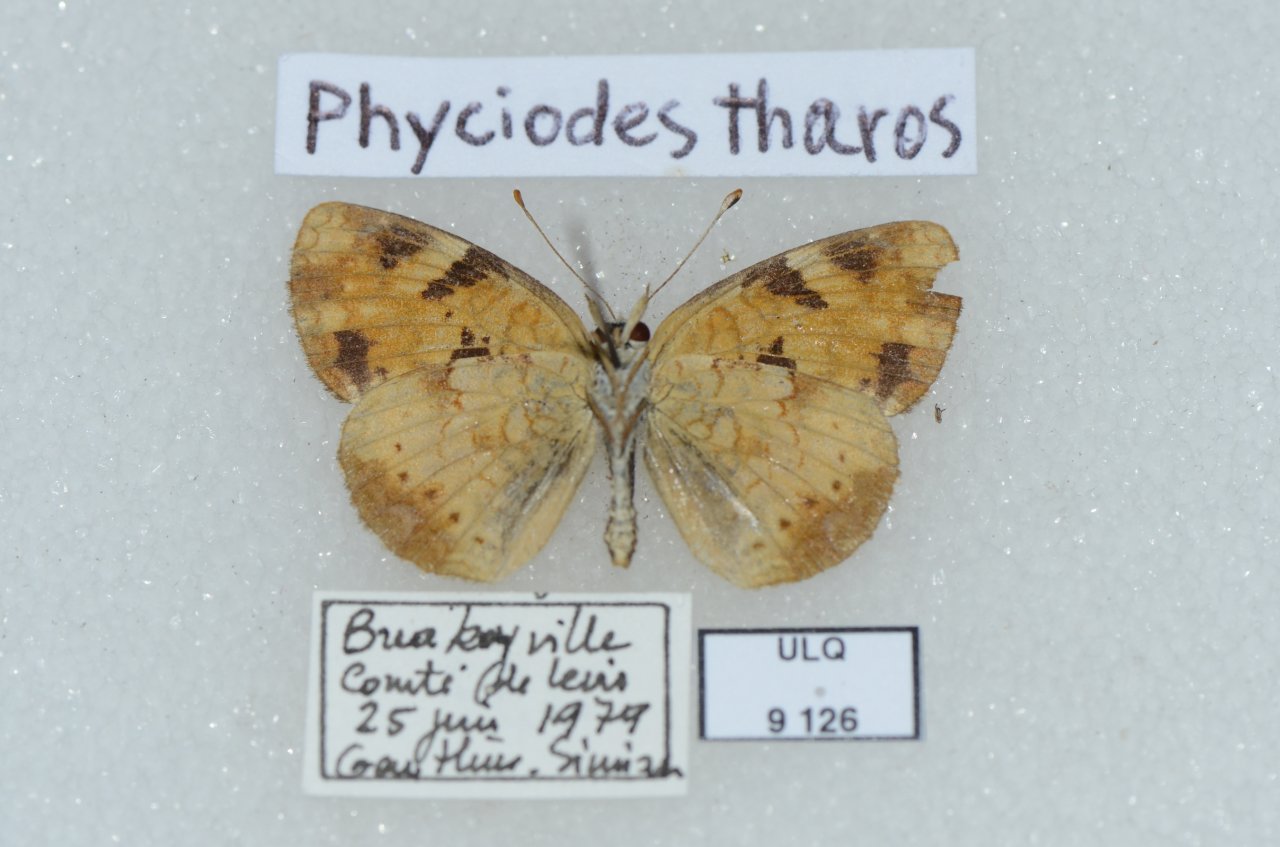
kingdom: Animalia
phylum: Arthropoda
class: Insecta
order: Lepidoptera
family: Nymphalidae
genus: Phyciodes
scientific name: Phyciodes tharos
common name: Northern Crescent
